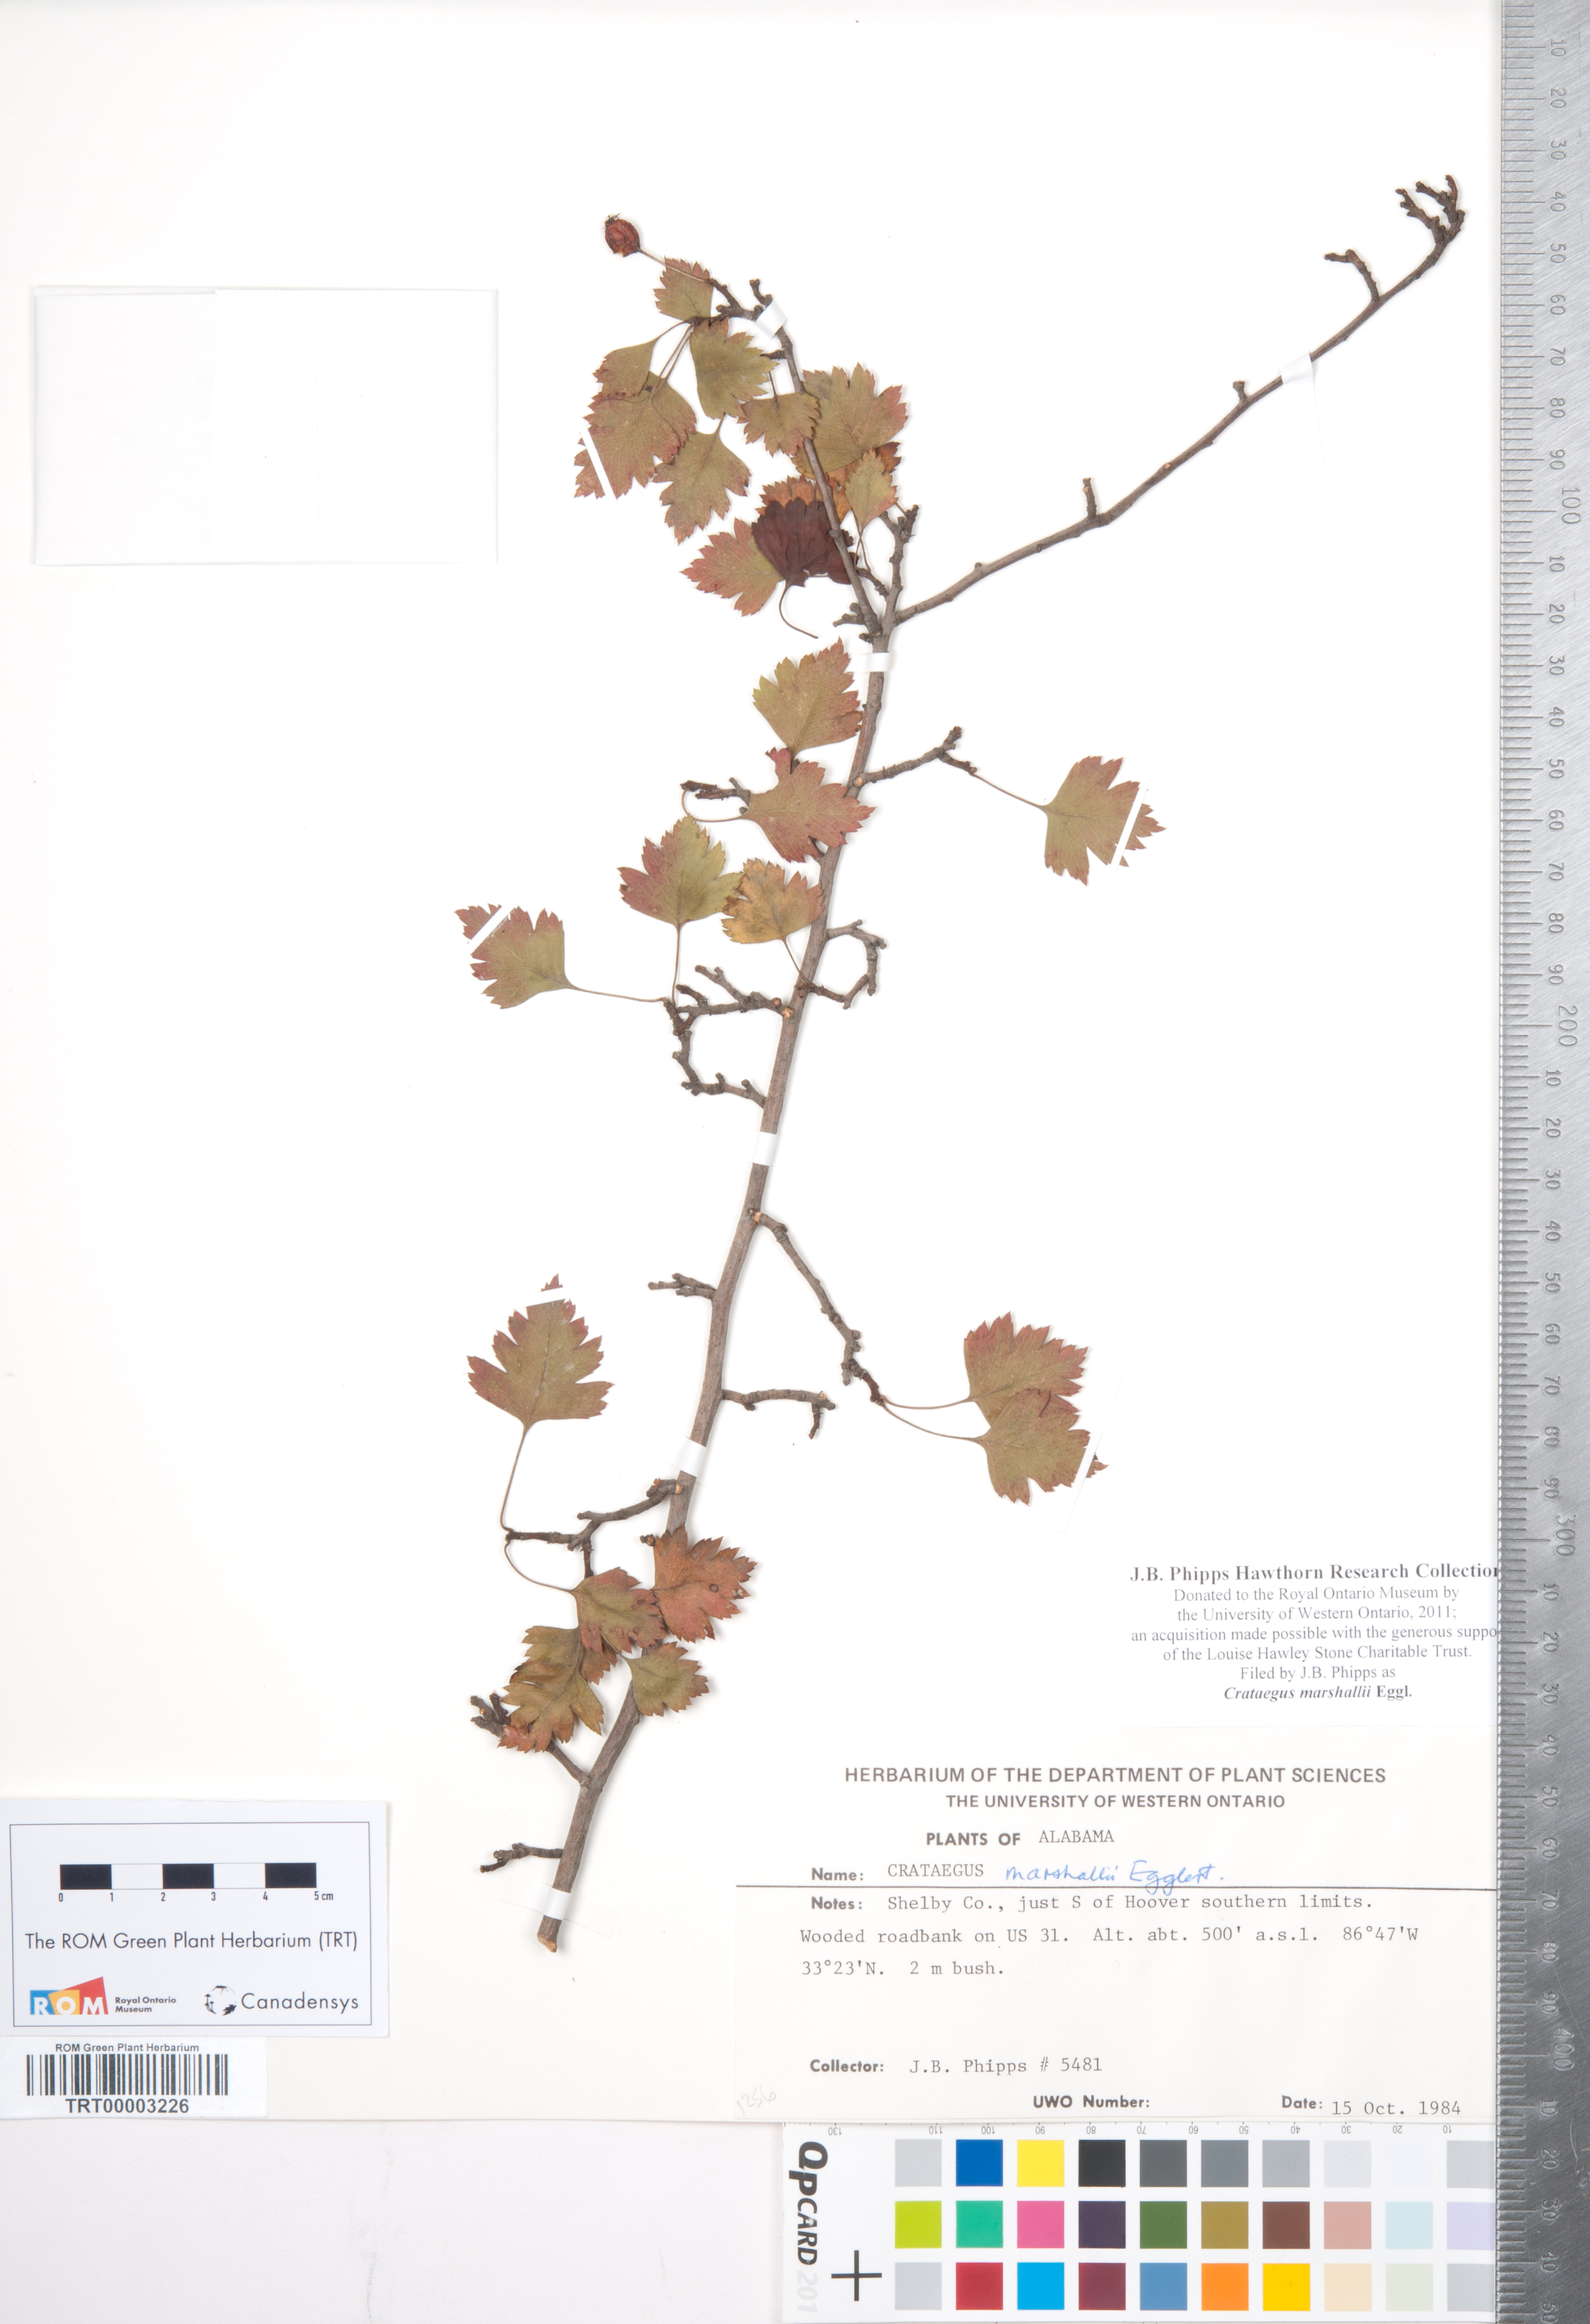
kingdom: Plantae
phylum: Tracheophyta
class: Magnoliopsida
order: Rosales
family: Rosaceae
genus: Crataegus
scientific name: Crataegus marshallii
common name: Parsley-hawthorn
